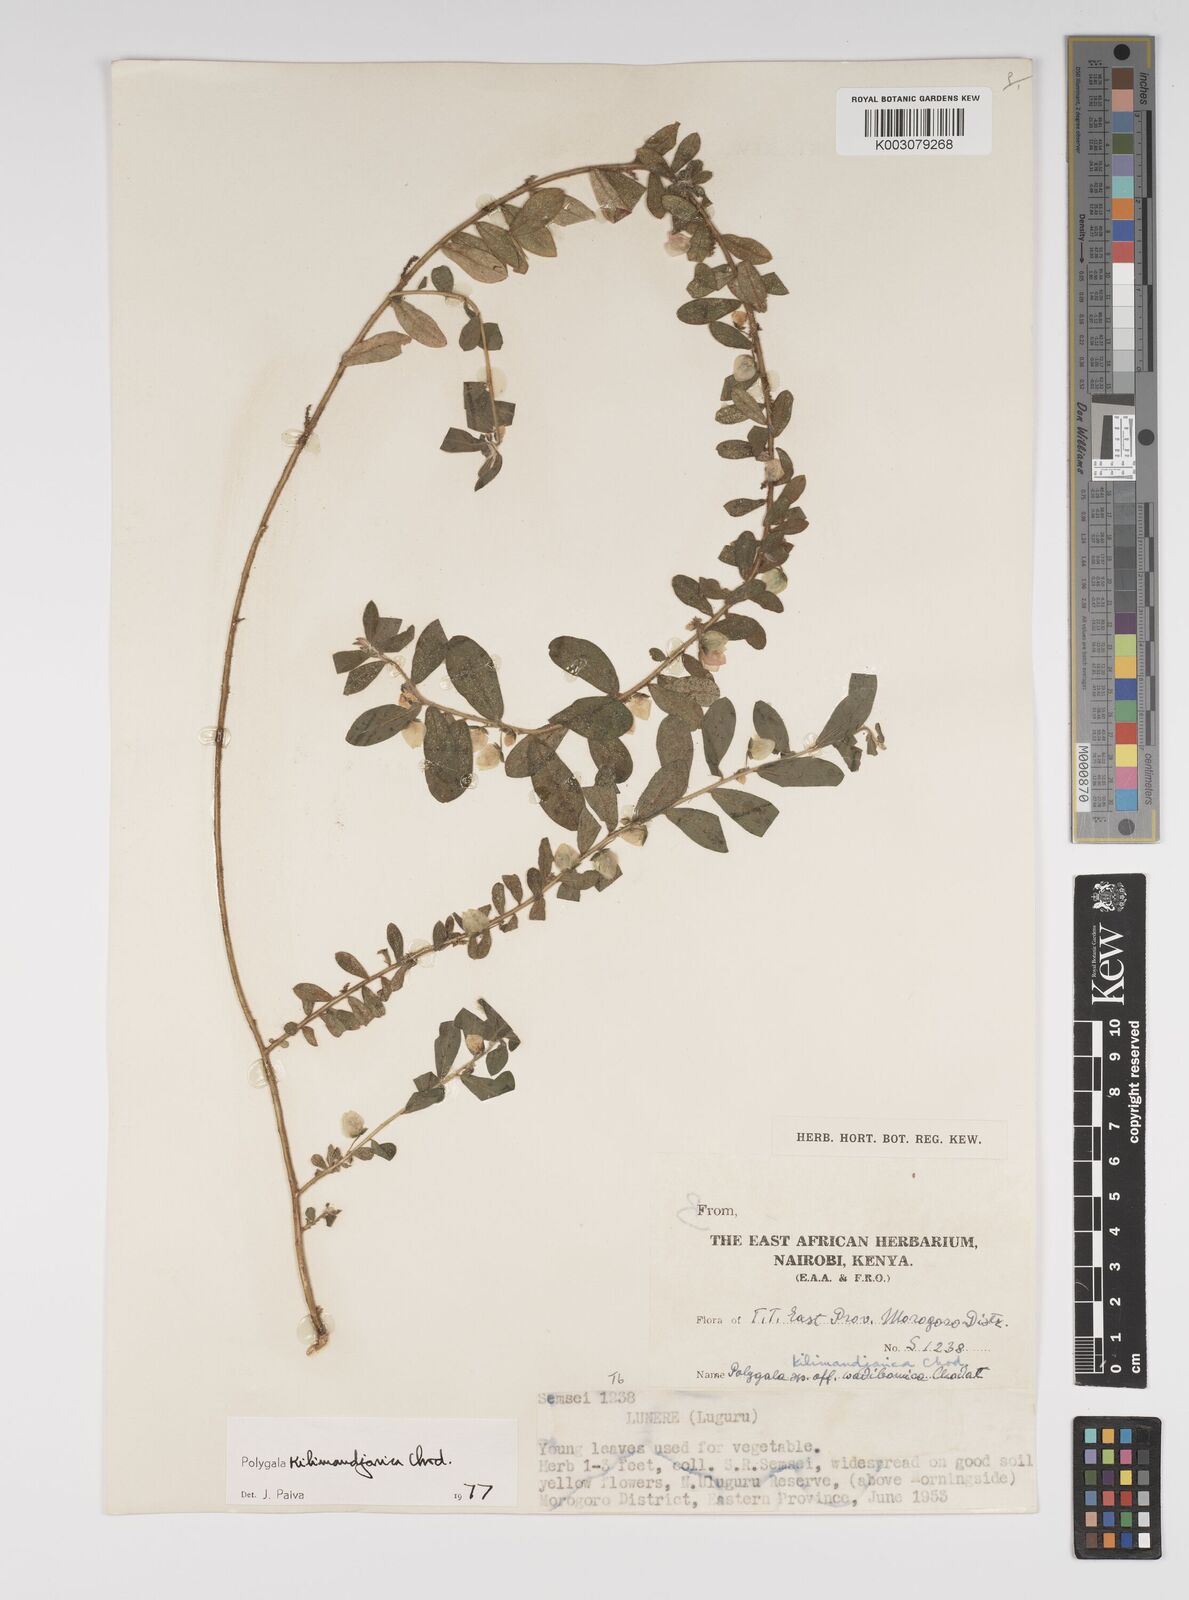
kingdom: Plantae
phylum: Tracheophyta
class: Magnoliopsida
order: Fabales
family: Polygalaceae
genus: Polygala
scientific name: Polygala kilimandjarica
